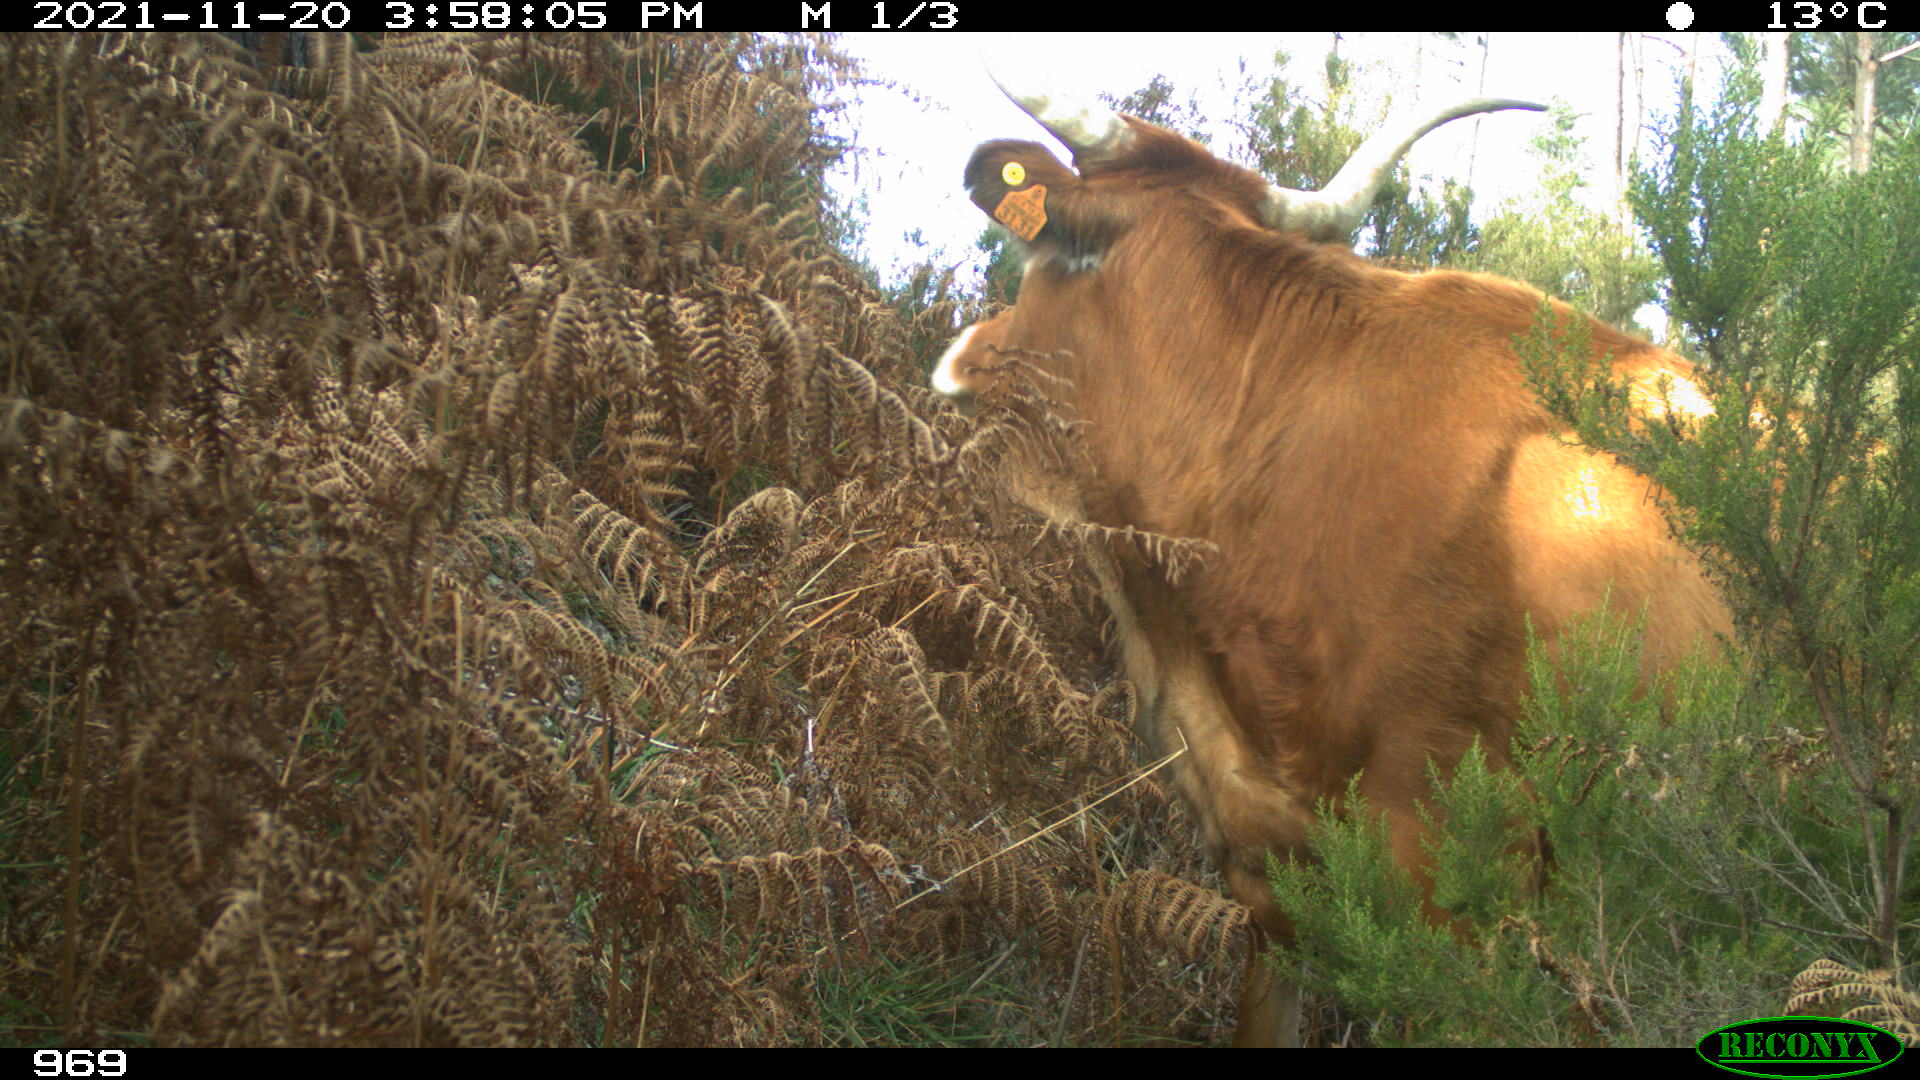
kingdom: Animalia
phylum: Chordata
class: Mammalia
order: Artiodactyla
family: Bovidae
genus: Bos
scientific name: Bos taurus
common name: Domesticated cattle
